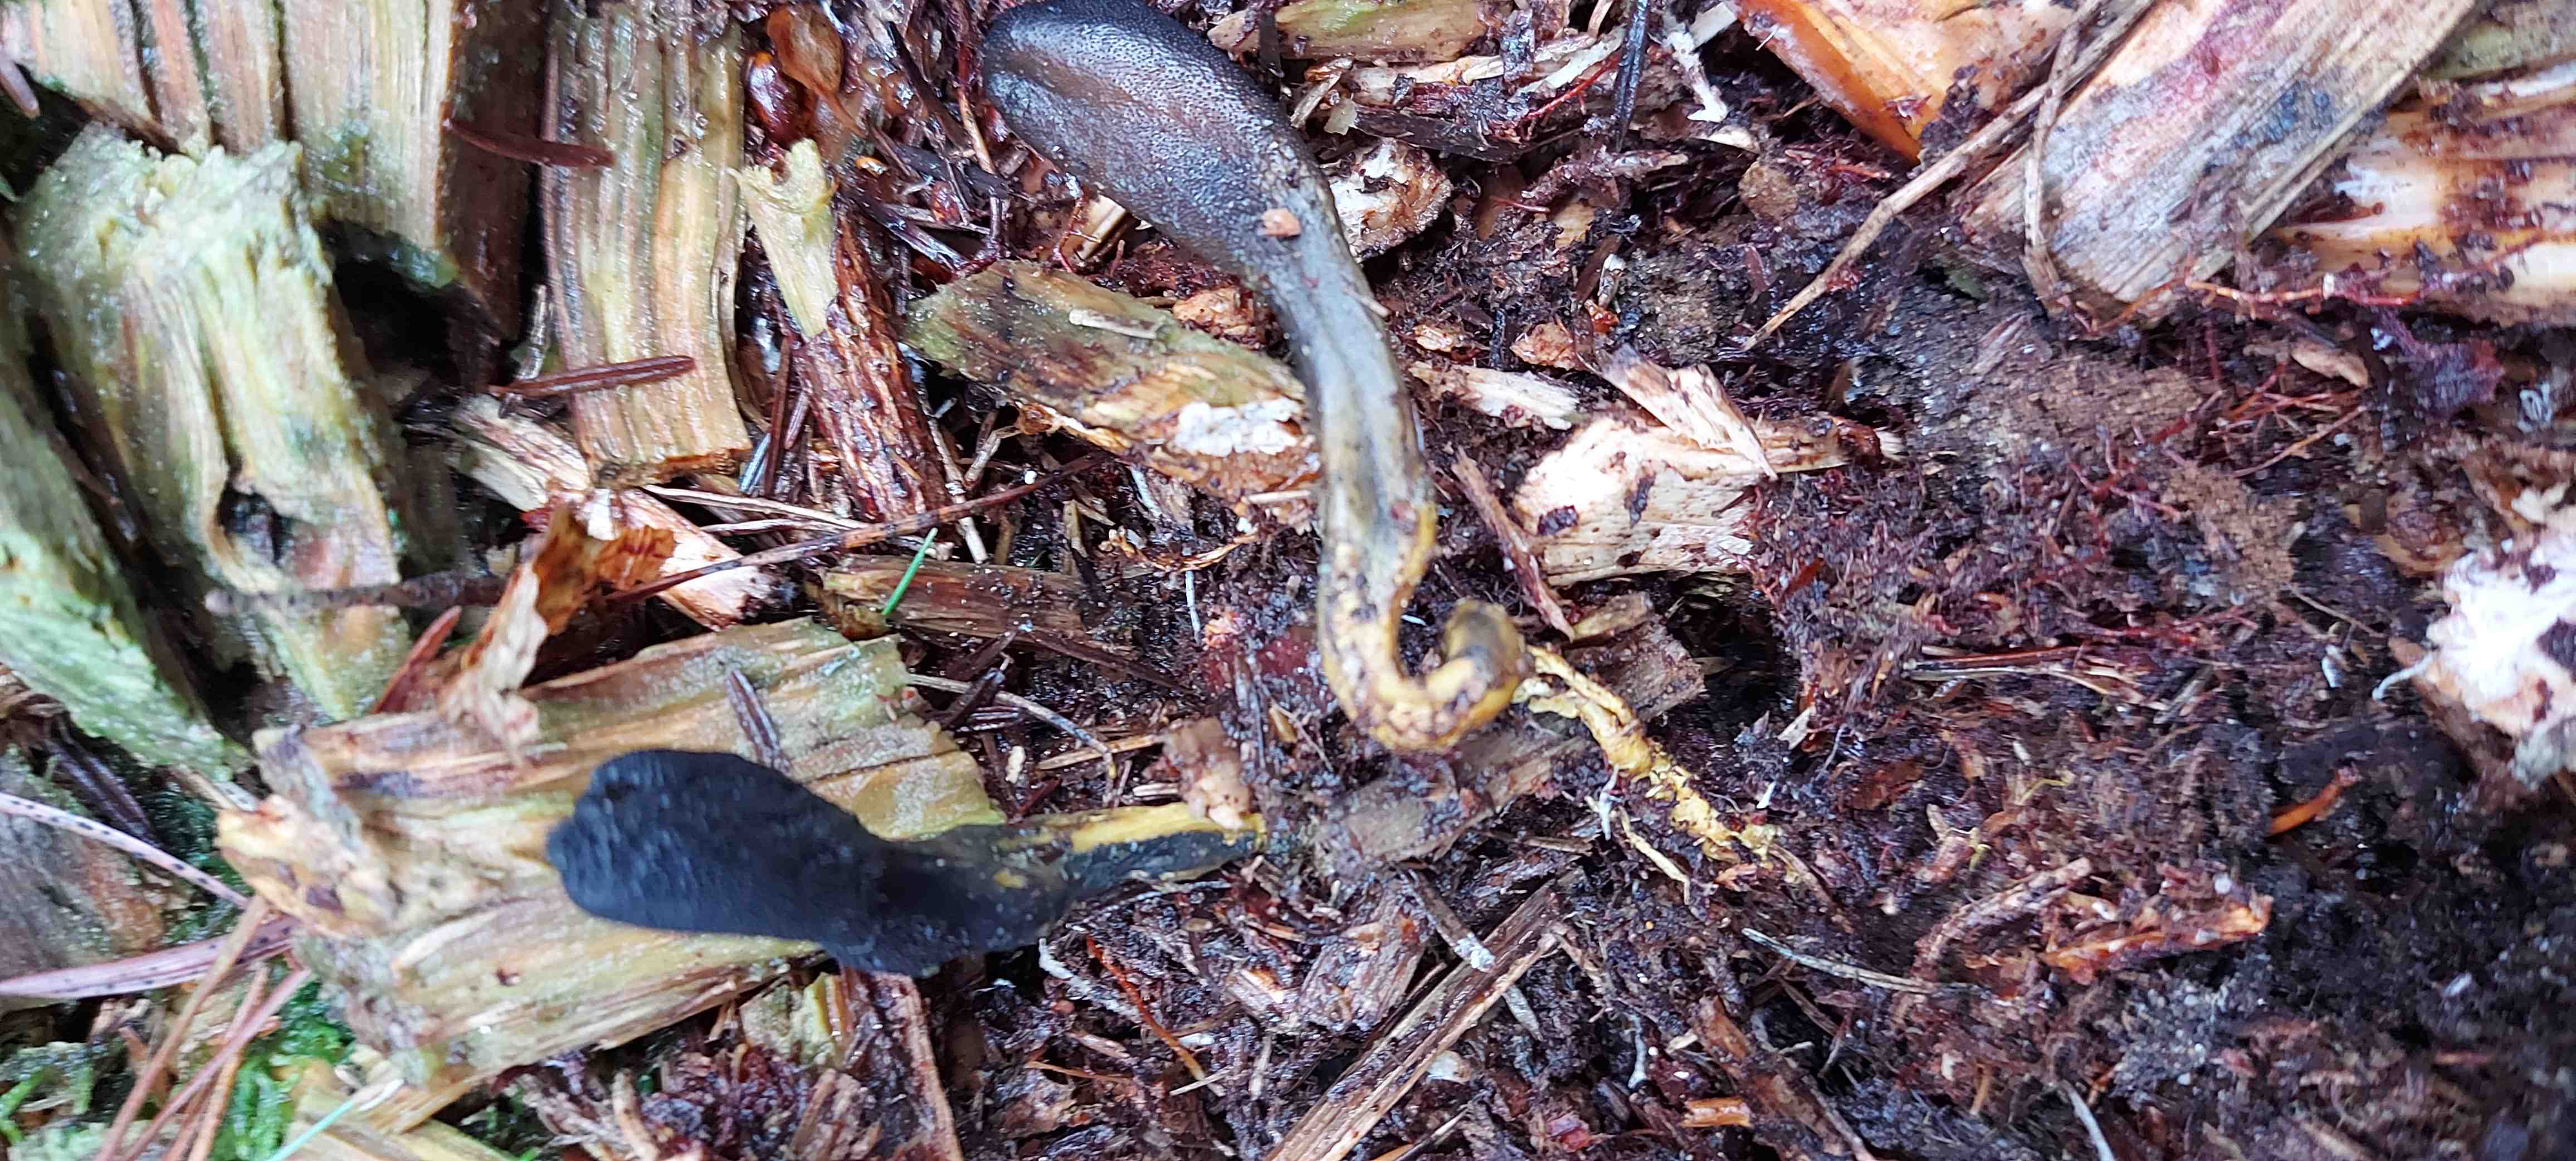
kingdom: Fungi
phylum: Ascomycota
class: Sordariomycetes
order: Hypocreales
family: Ophiocordycipitaceae
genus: Tolypocladium
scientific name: Tolypocladium ophioglossoides
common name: slank snyltekølle
